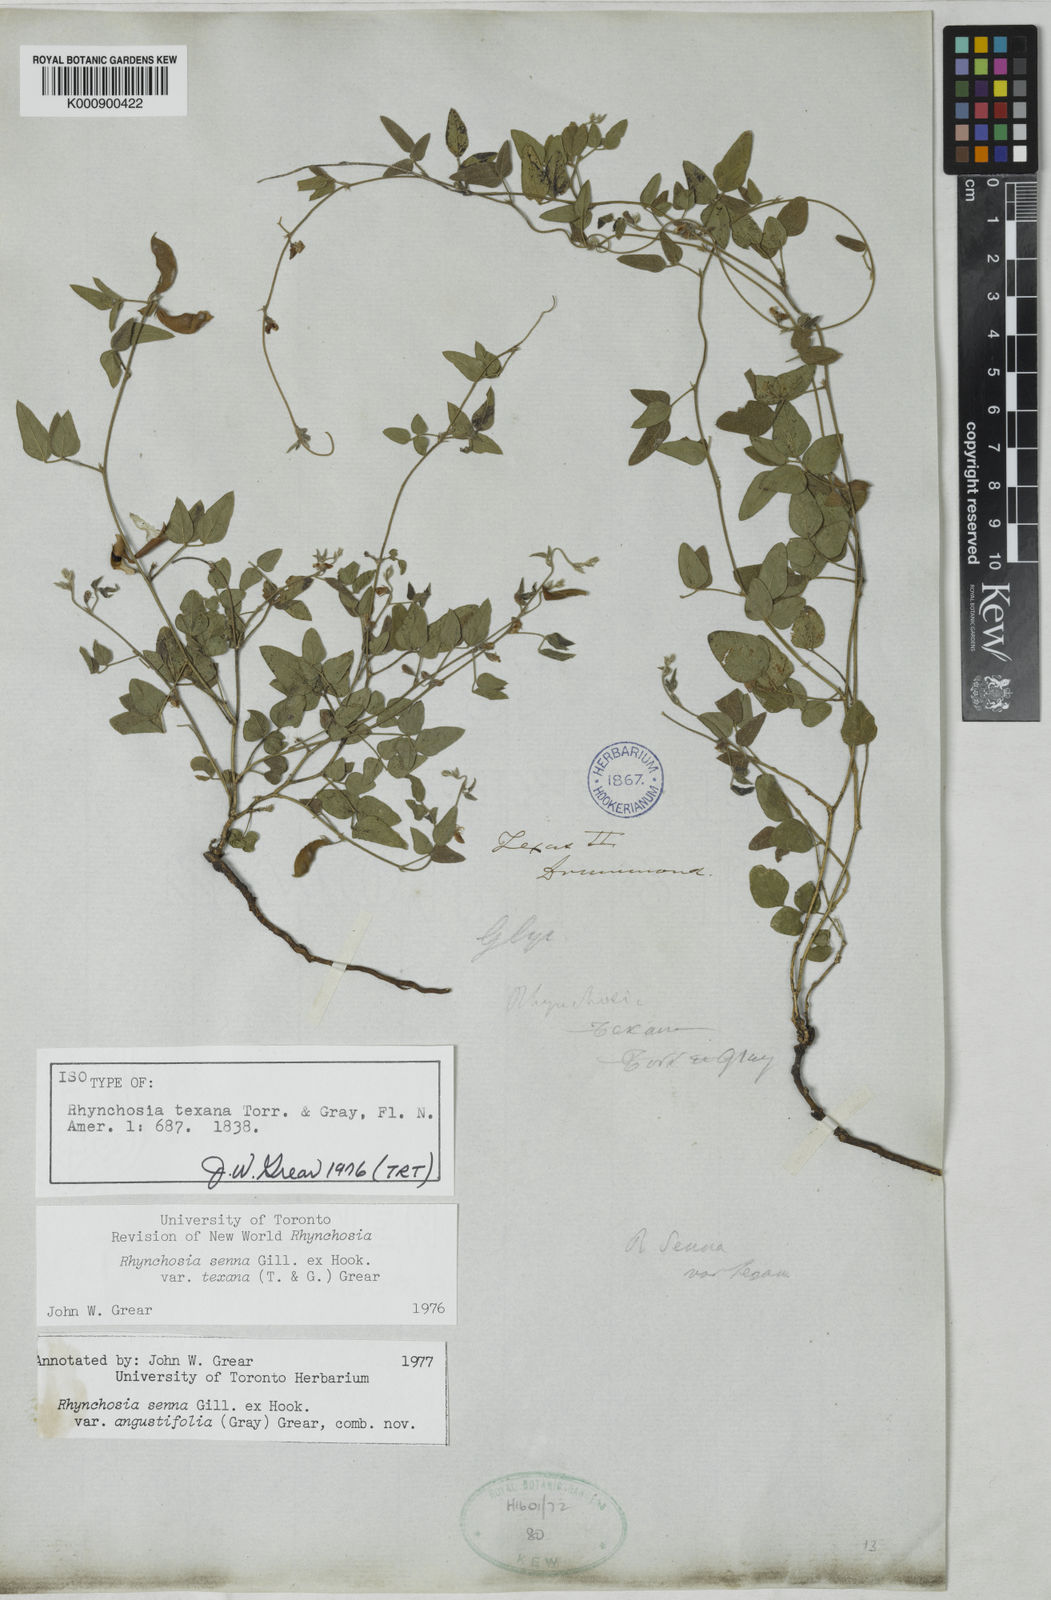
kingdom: Plantae
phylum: Tracheophyta
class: Magnoliopsida
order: Fabales
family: Fabaceae
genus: Rhynchosia
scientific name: Rhynchosia senna
